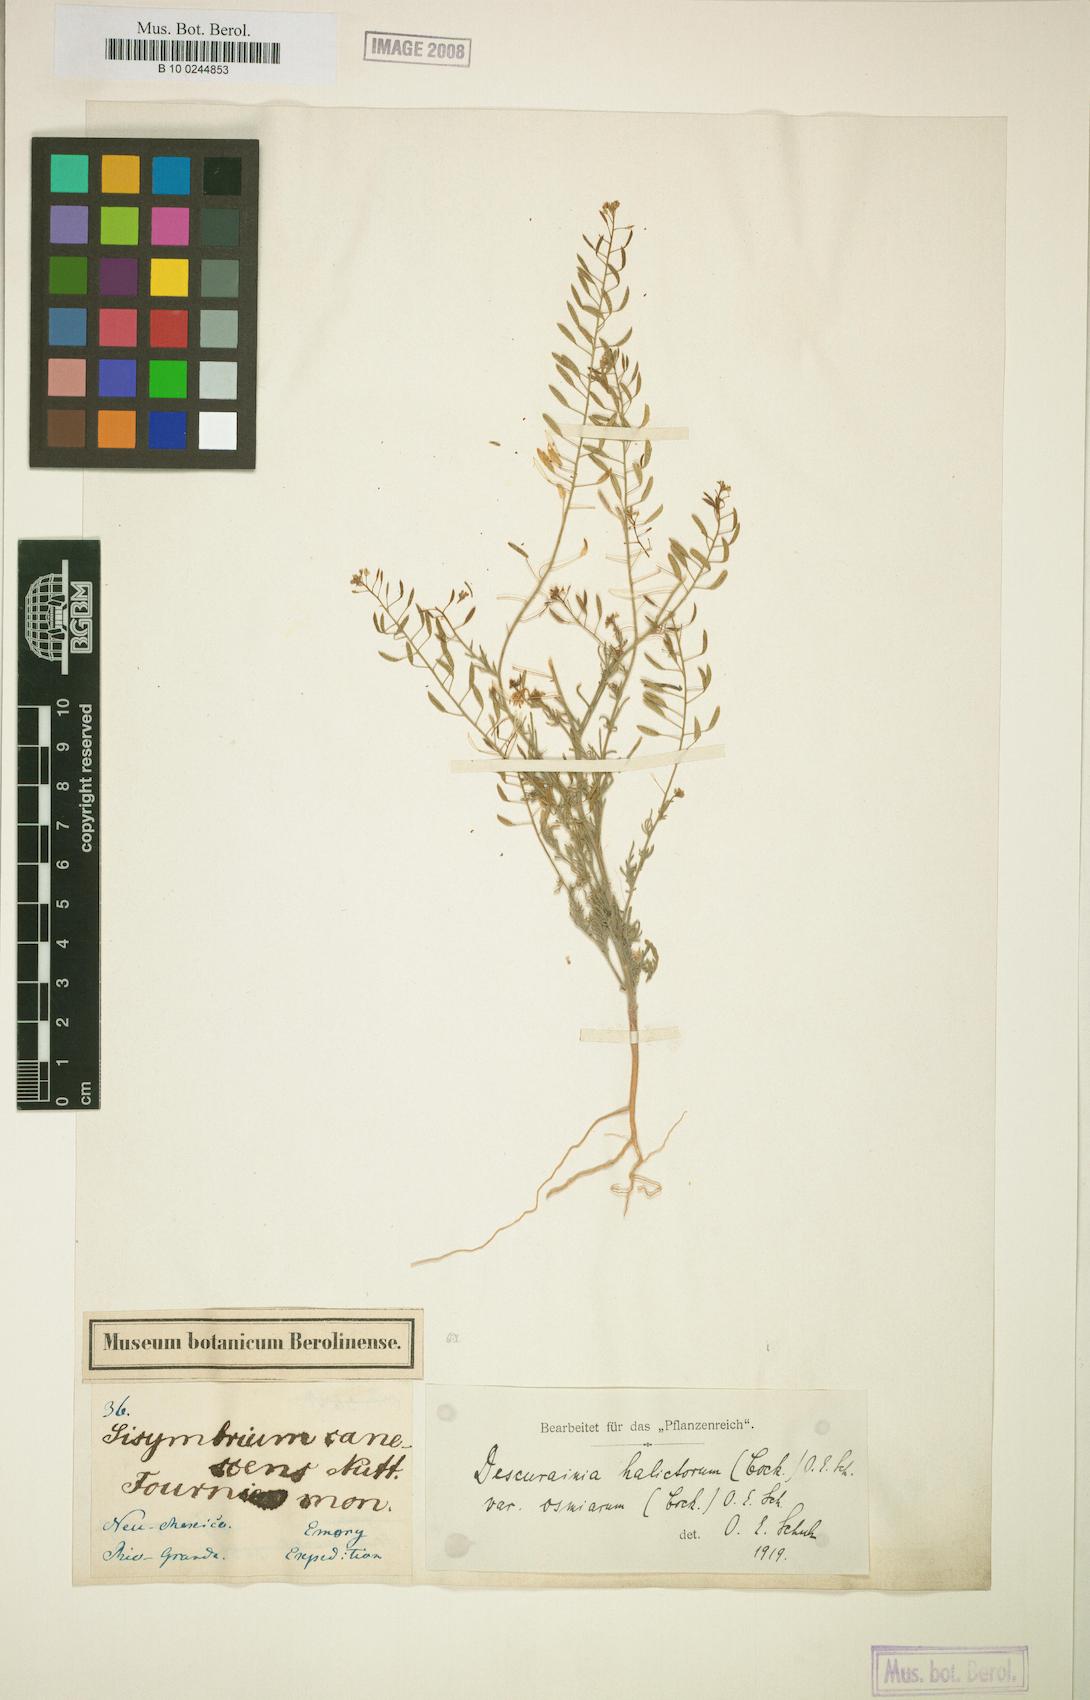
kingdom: Plantae
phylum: Tracheophyta
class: Magnoliopsida
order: Brassicales
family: Brassicaceae
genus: Descurainia
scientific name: Descurainia pinnata
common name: Western tansy mustard
